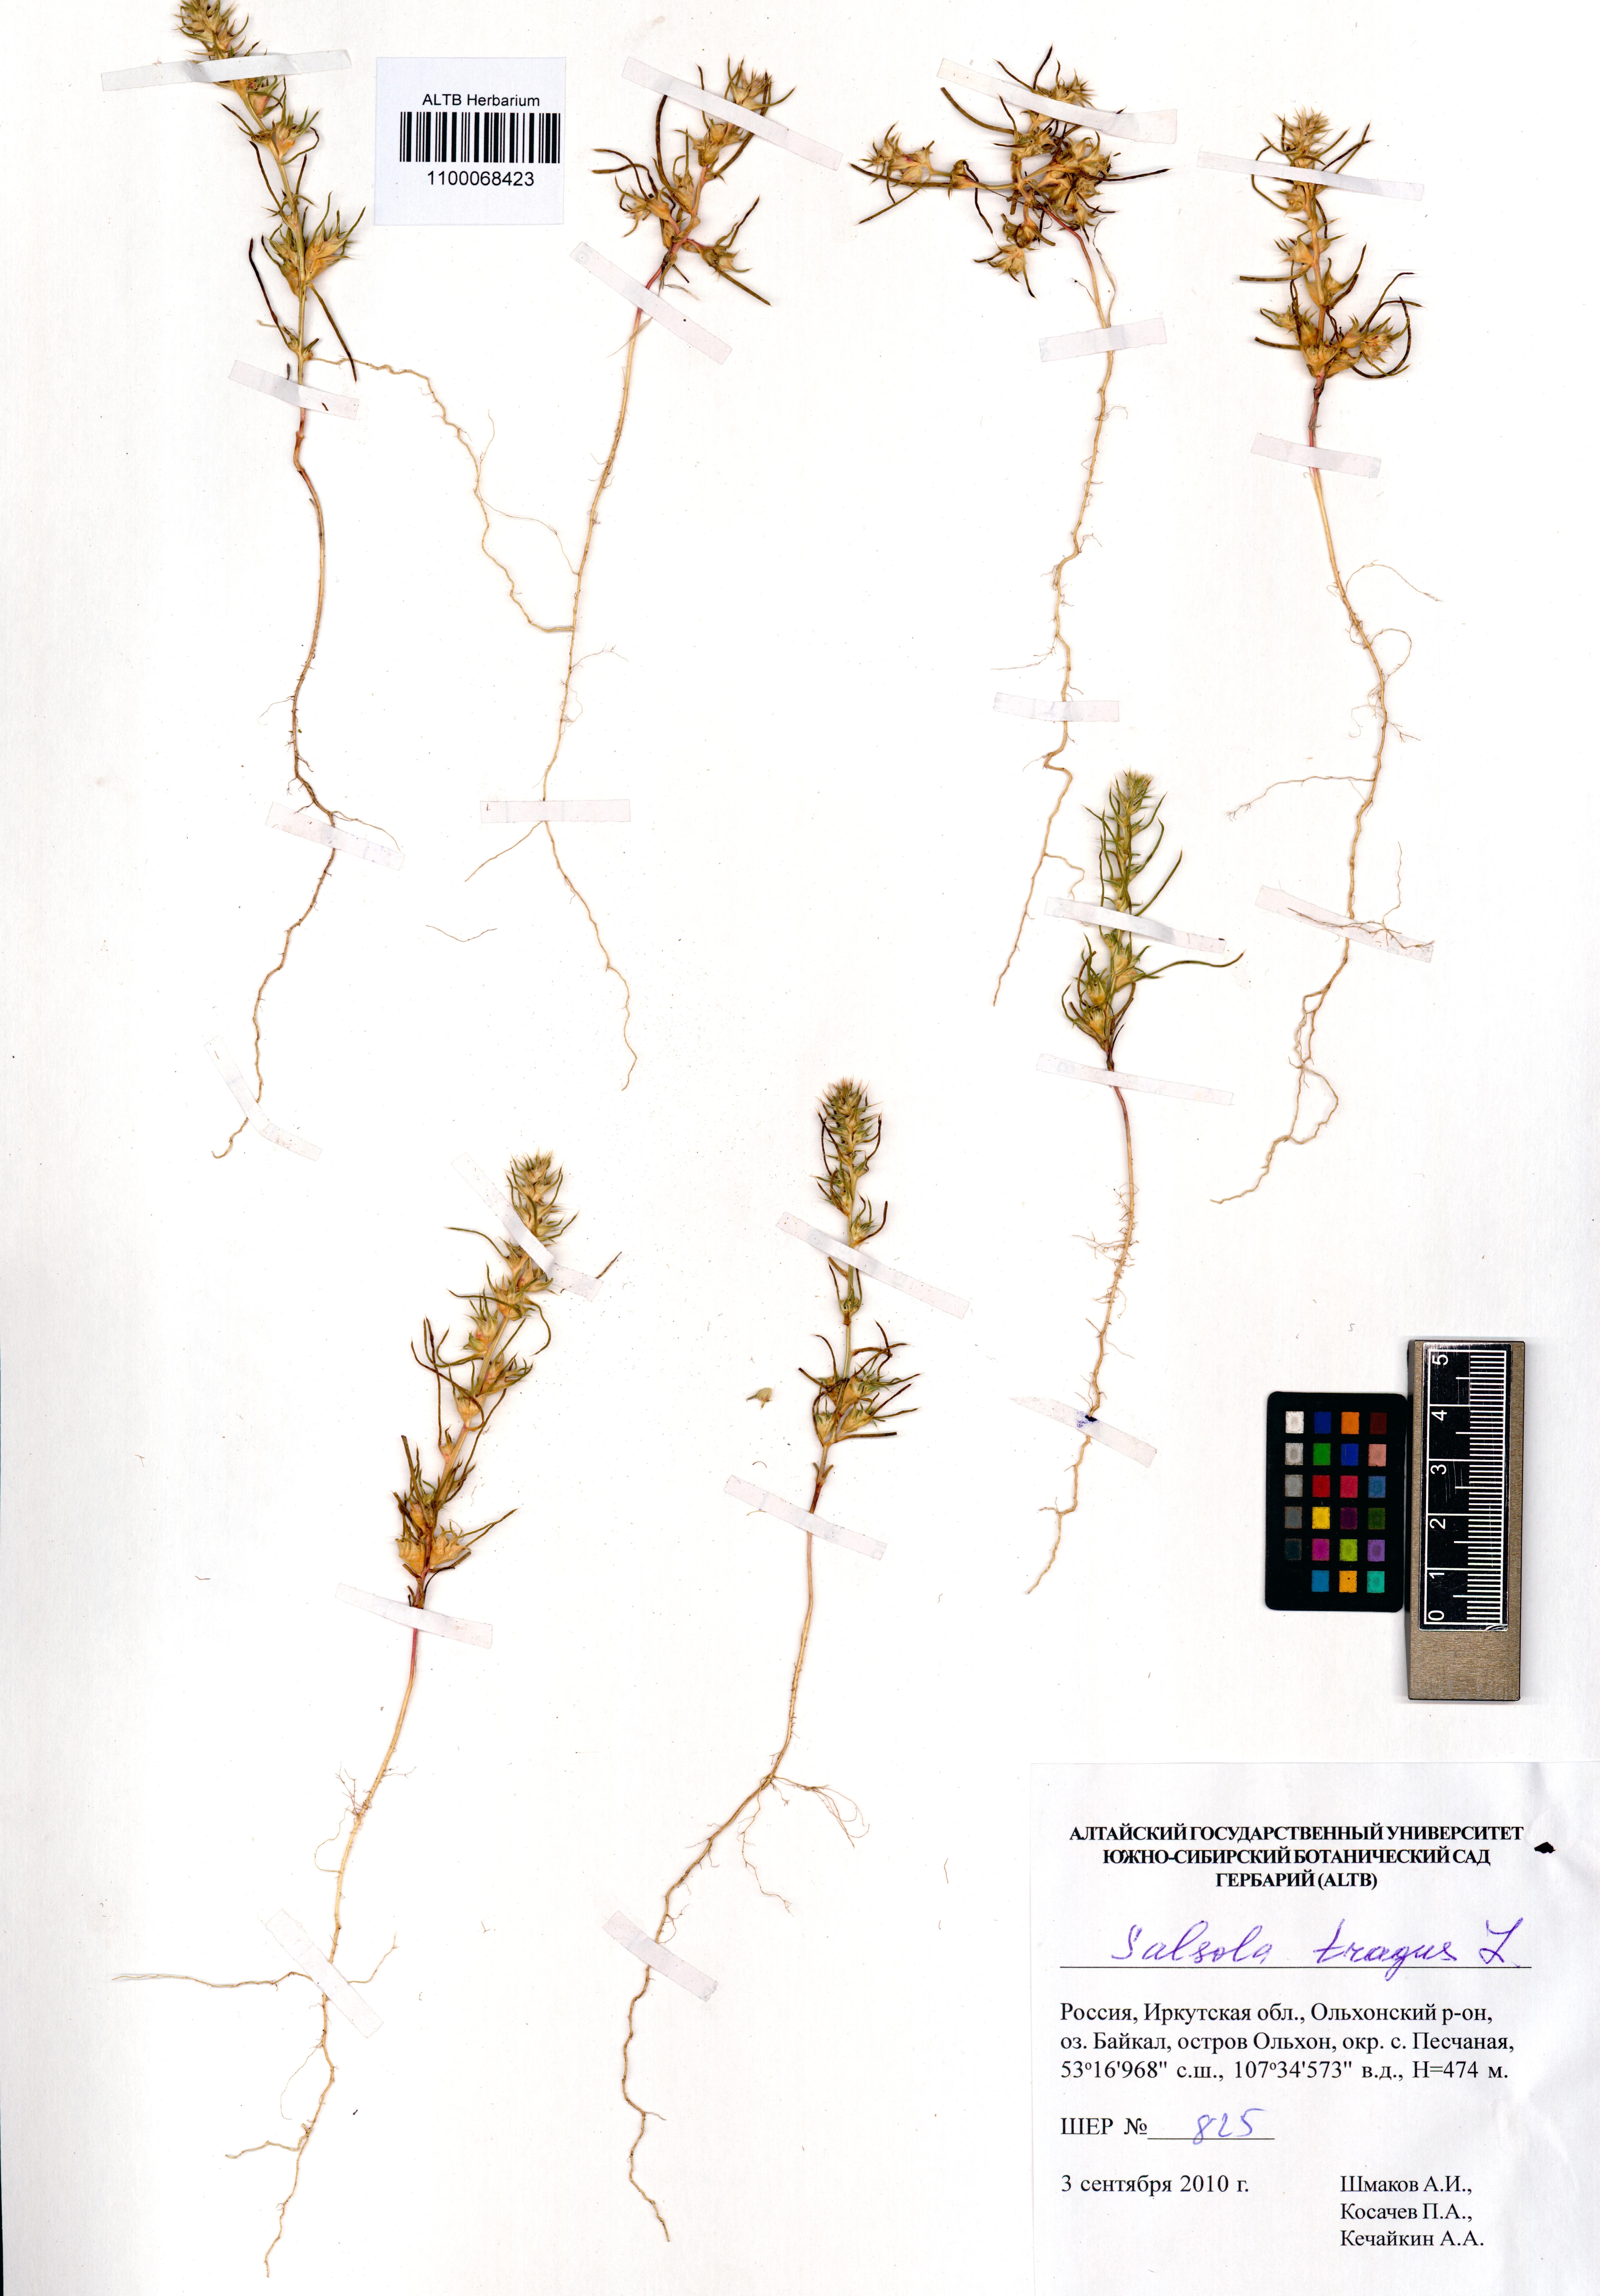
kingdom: Plantae
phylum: Tracheophyta
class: Magnoliopsida
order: Caryophyllales
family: Amaranthaceae
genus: Salsola
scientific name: Salsola tragus
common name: Prickly russian thistle
